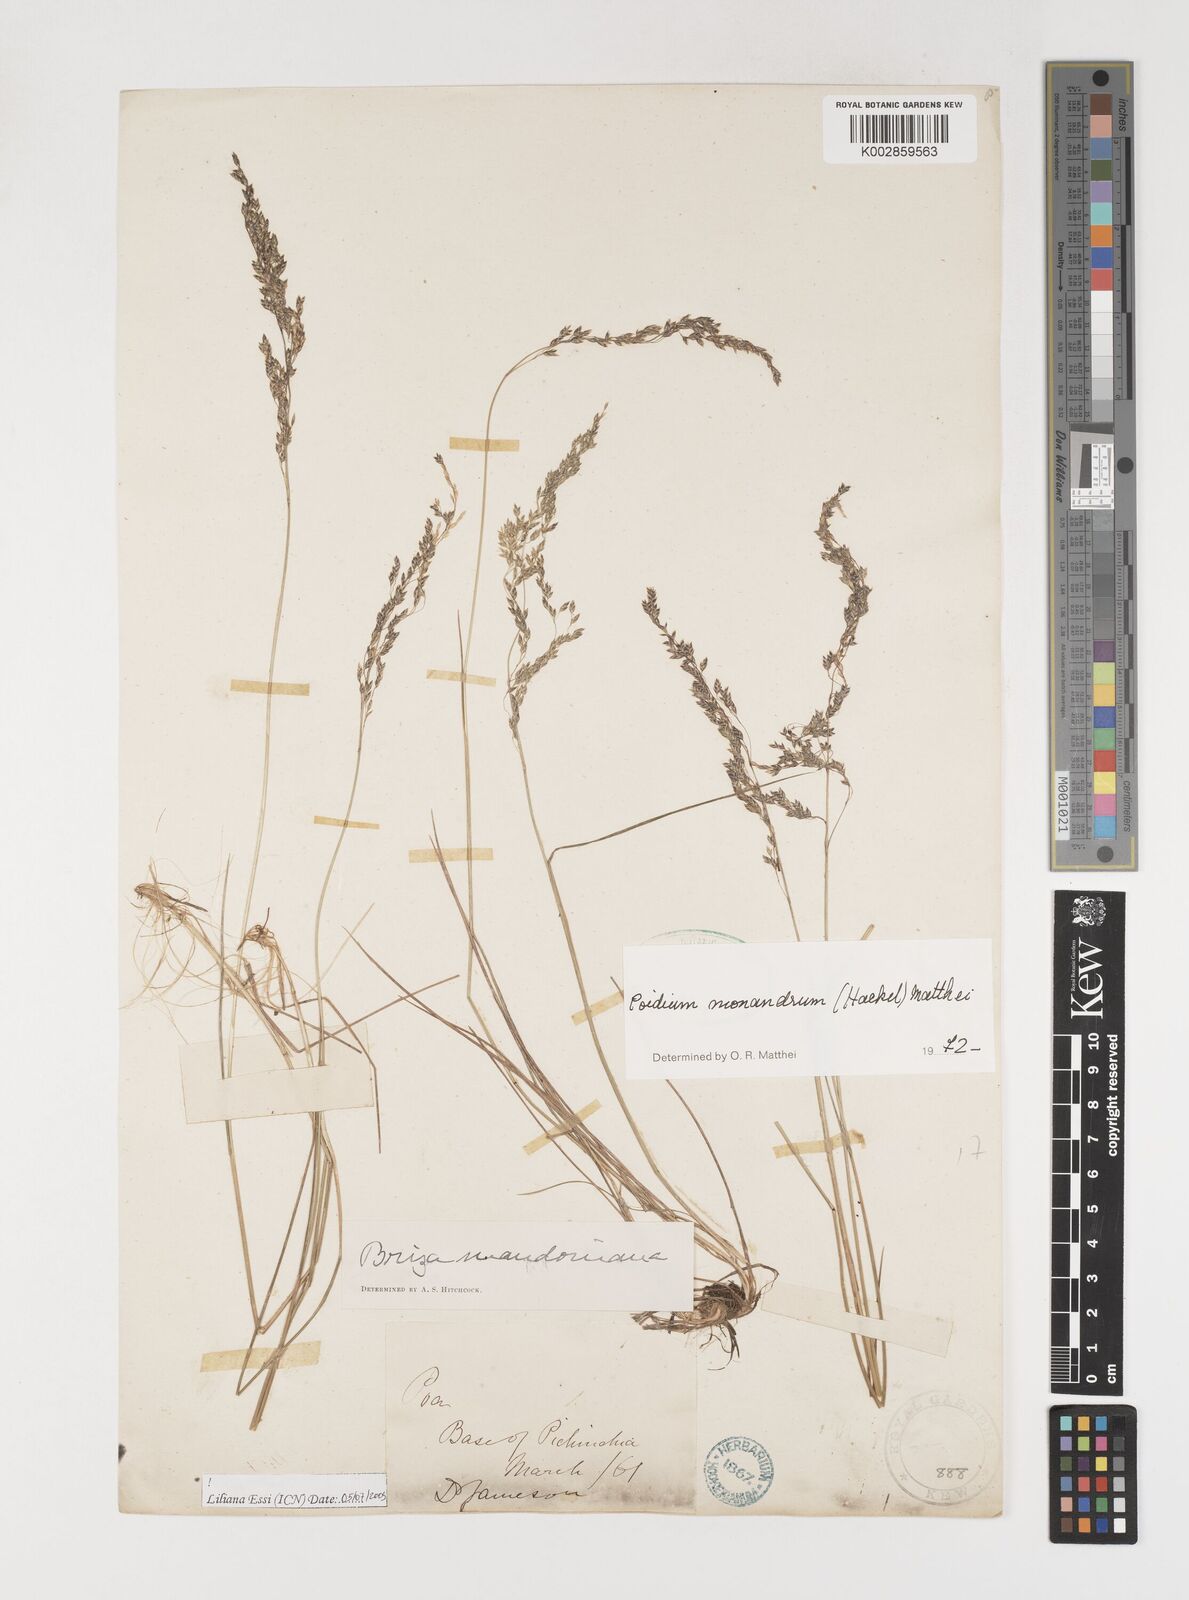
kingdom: Plantae
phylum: Tracheophyta
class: Liliopsida
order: Poales
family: Poaceae
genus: Poidium
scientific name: Poidium monandrum
